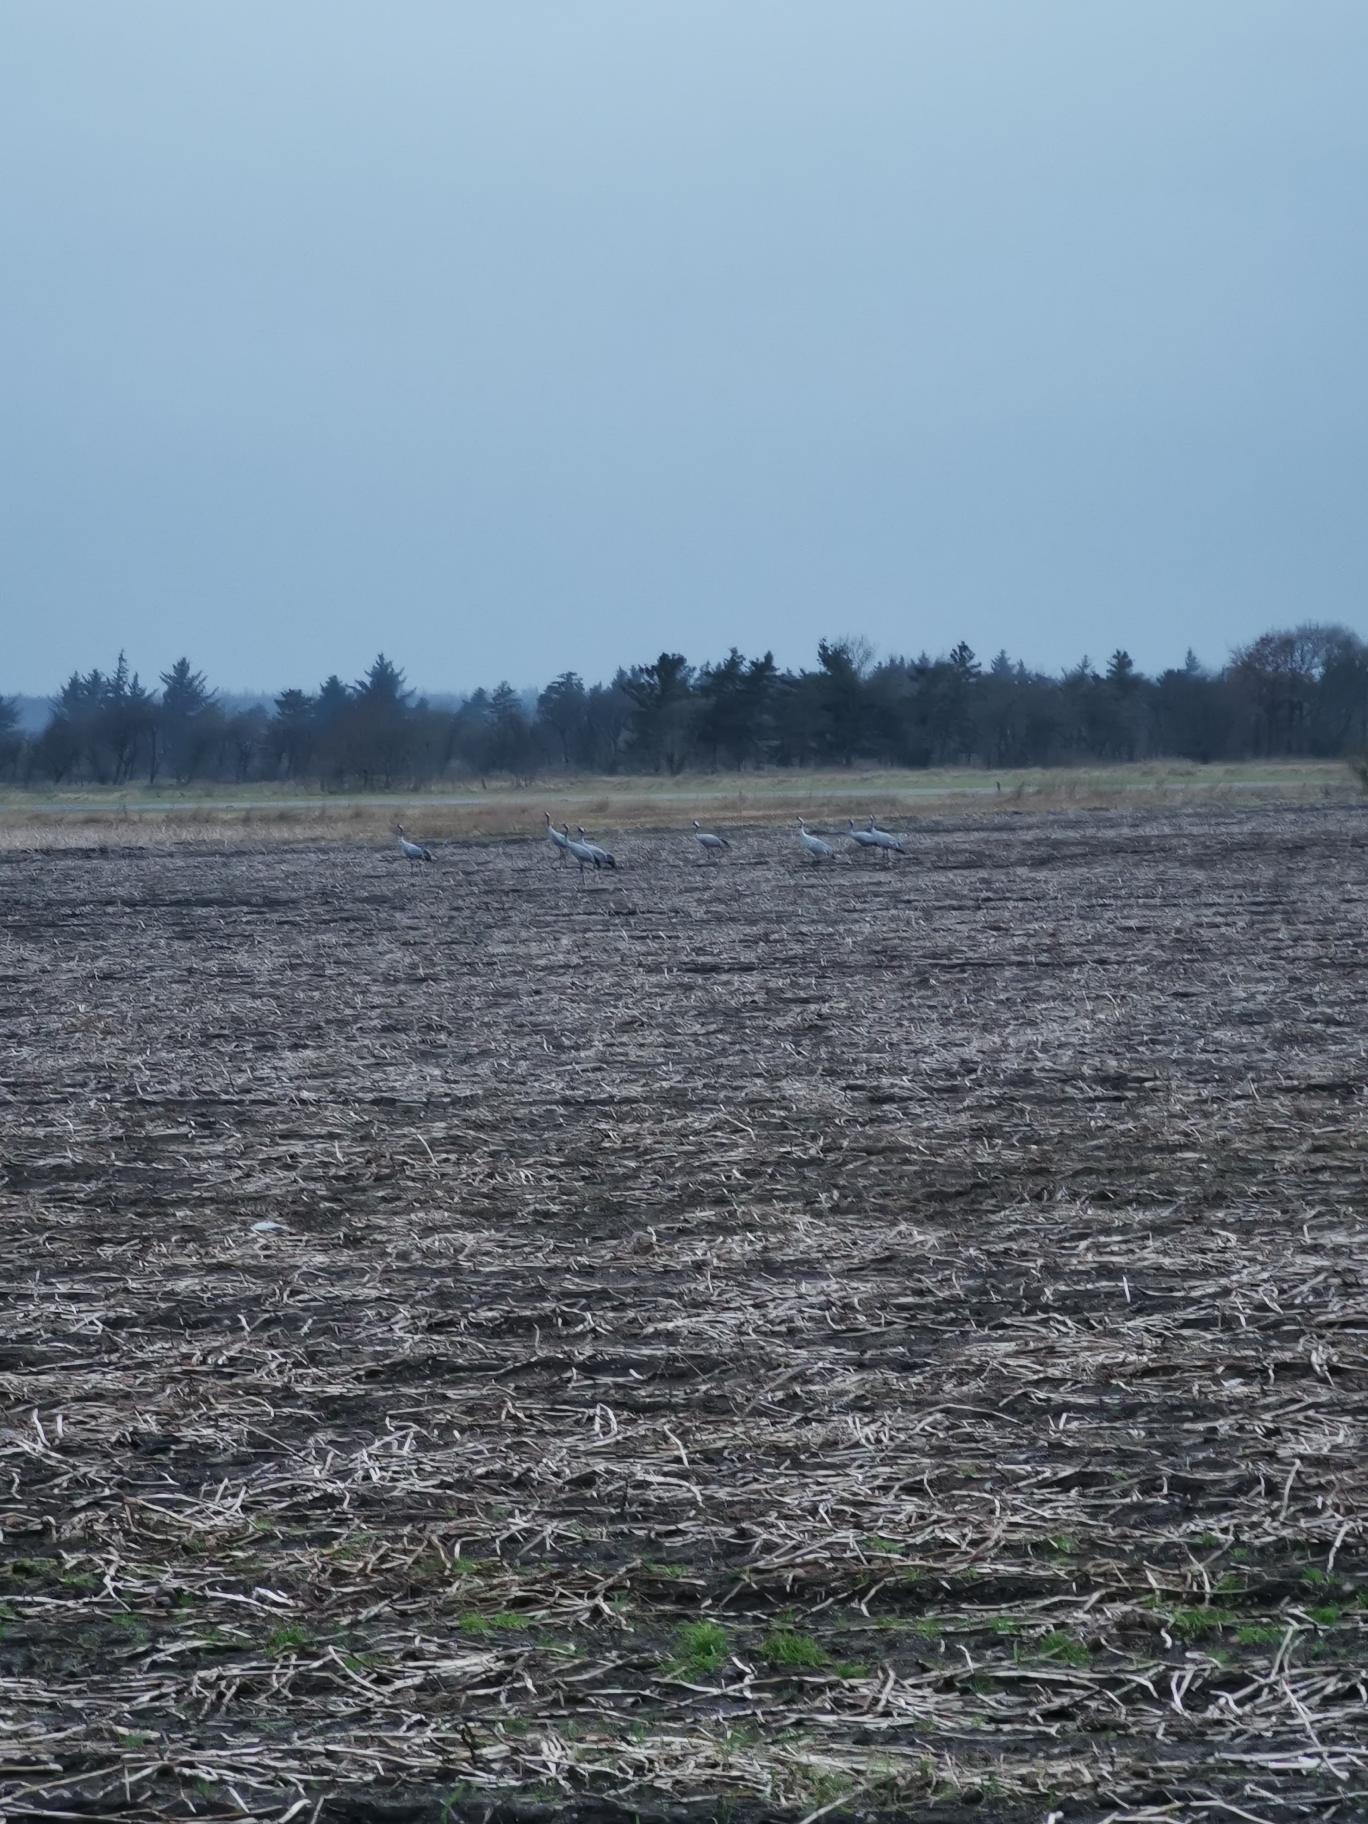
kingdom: Animalia
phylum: Chordata
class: Aves
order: Gruiformes
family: Gruidae
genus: Grus
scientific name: Grus grus
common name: Trane
